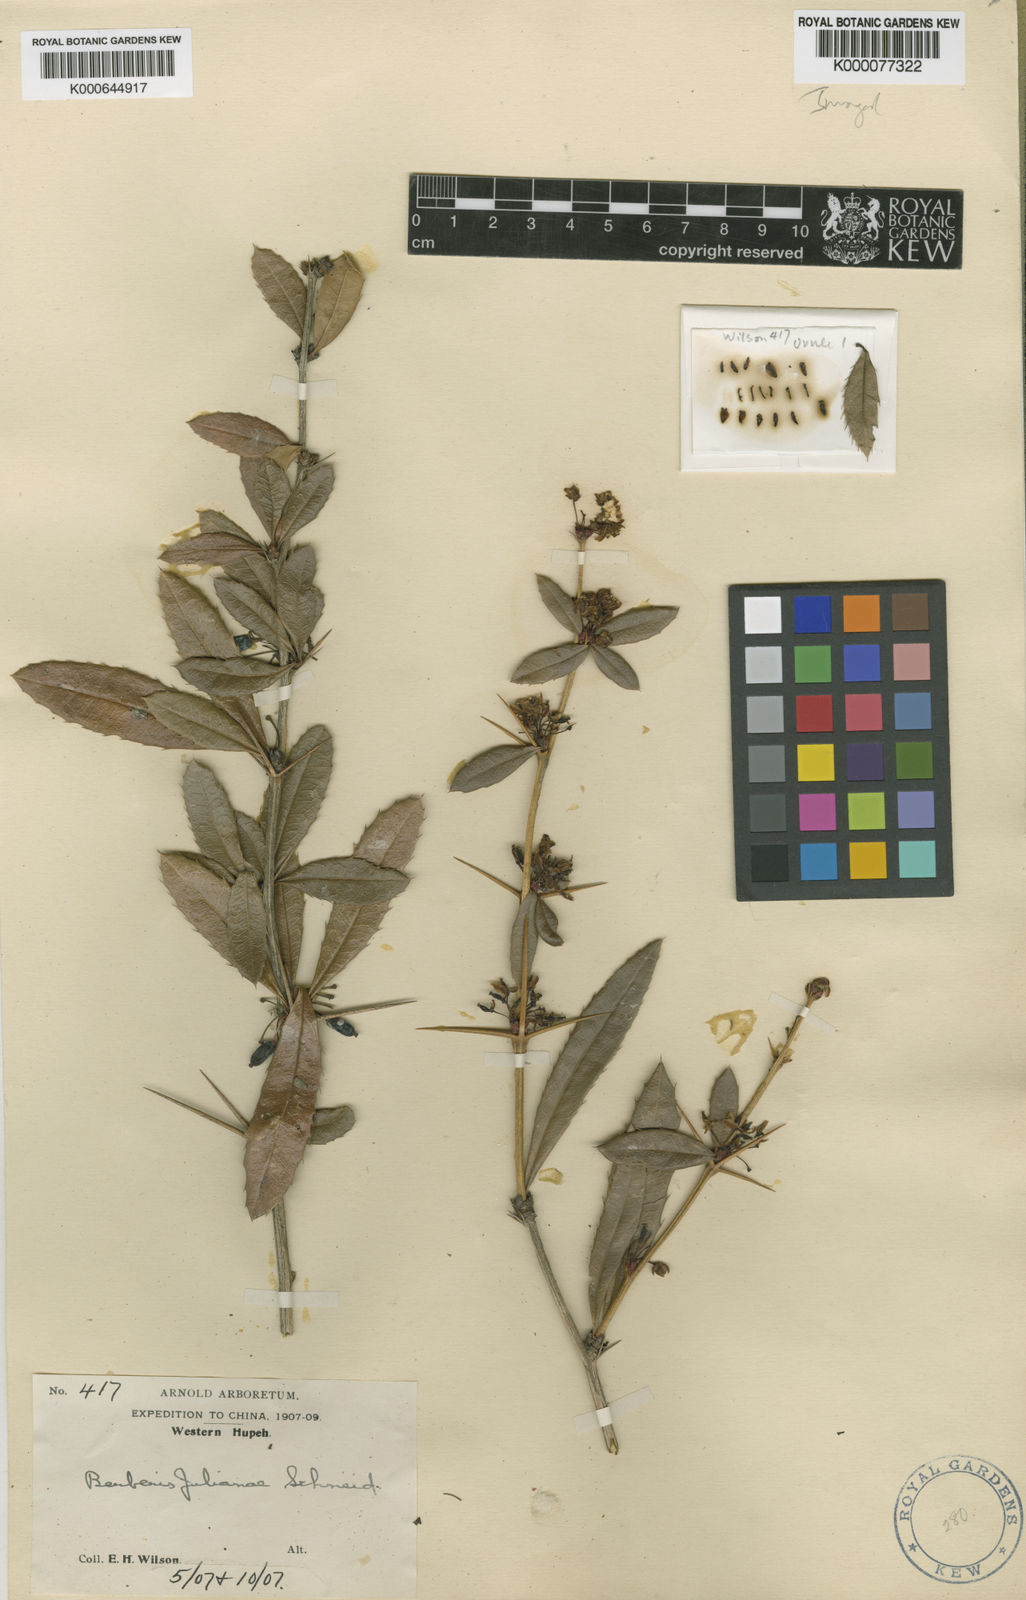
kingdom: Plantae
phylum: Tracheophyta
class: Magnoliopsida
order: Ranunculales
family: Berberidaceae
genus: Berberis
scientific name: Berberis julianae
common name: Wintergreen barberry
